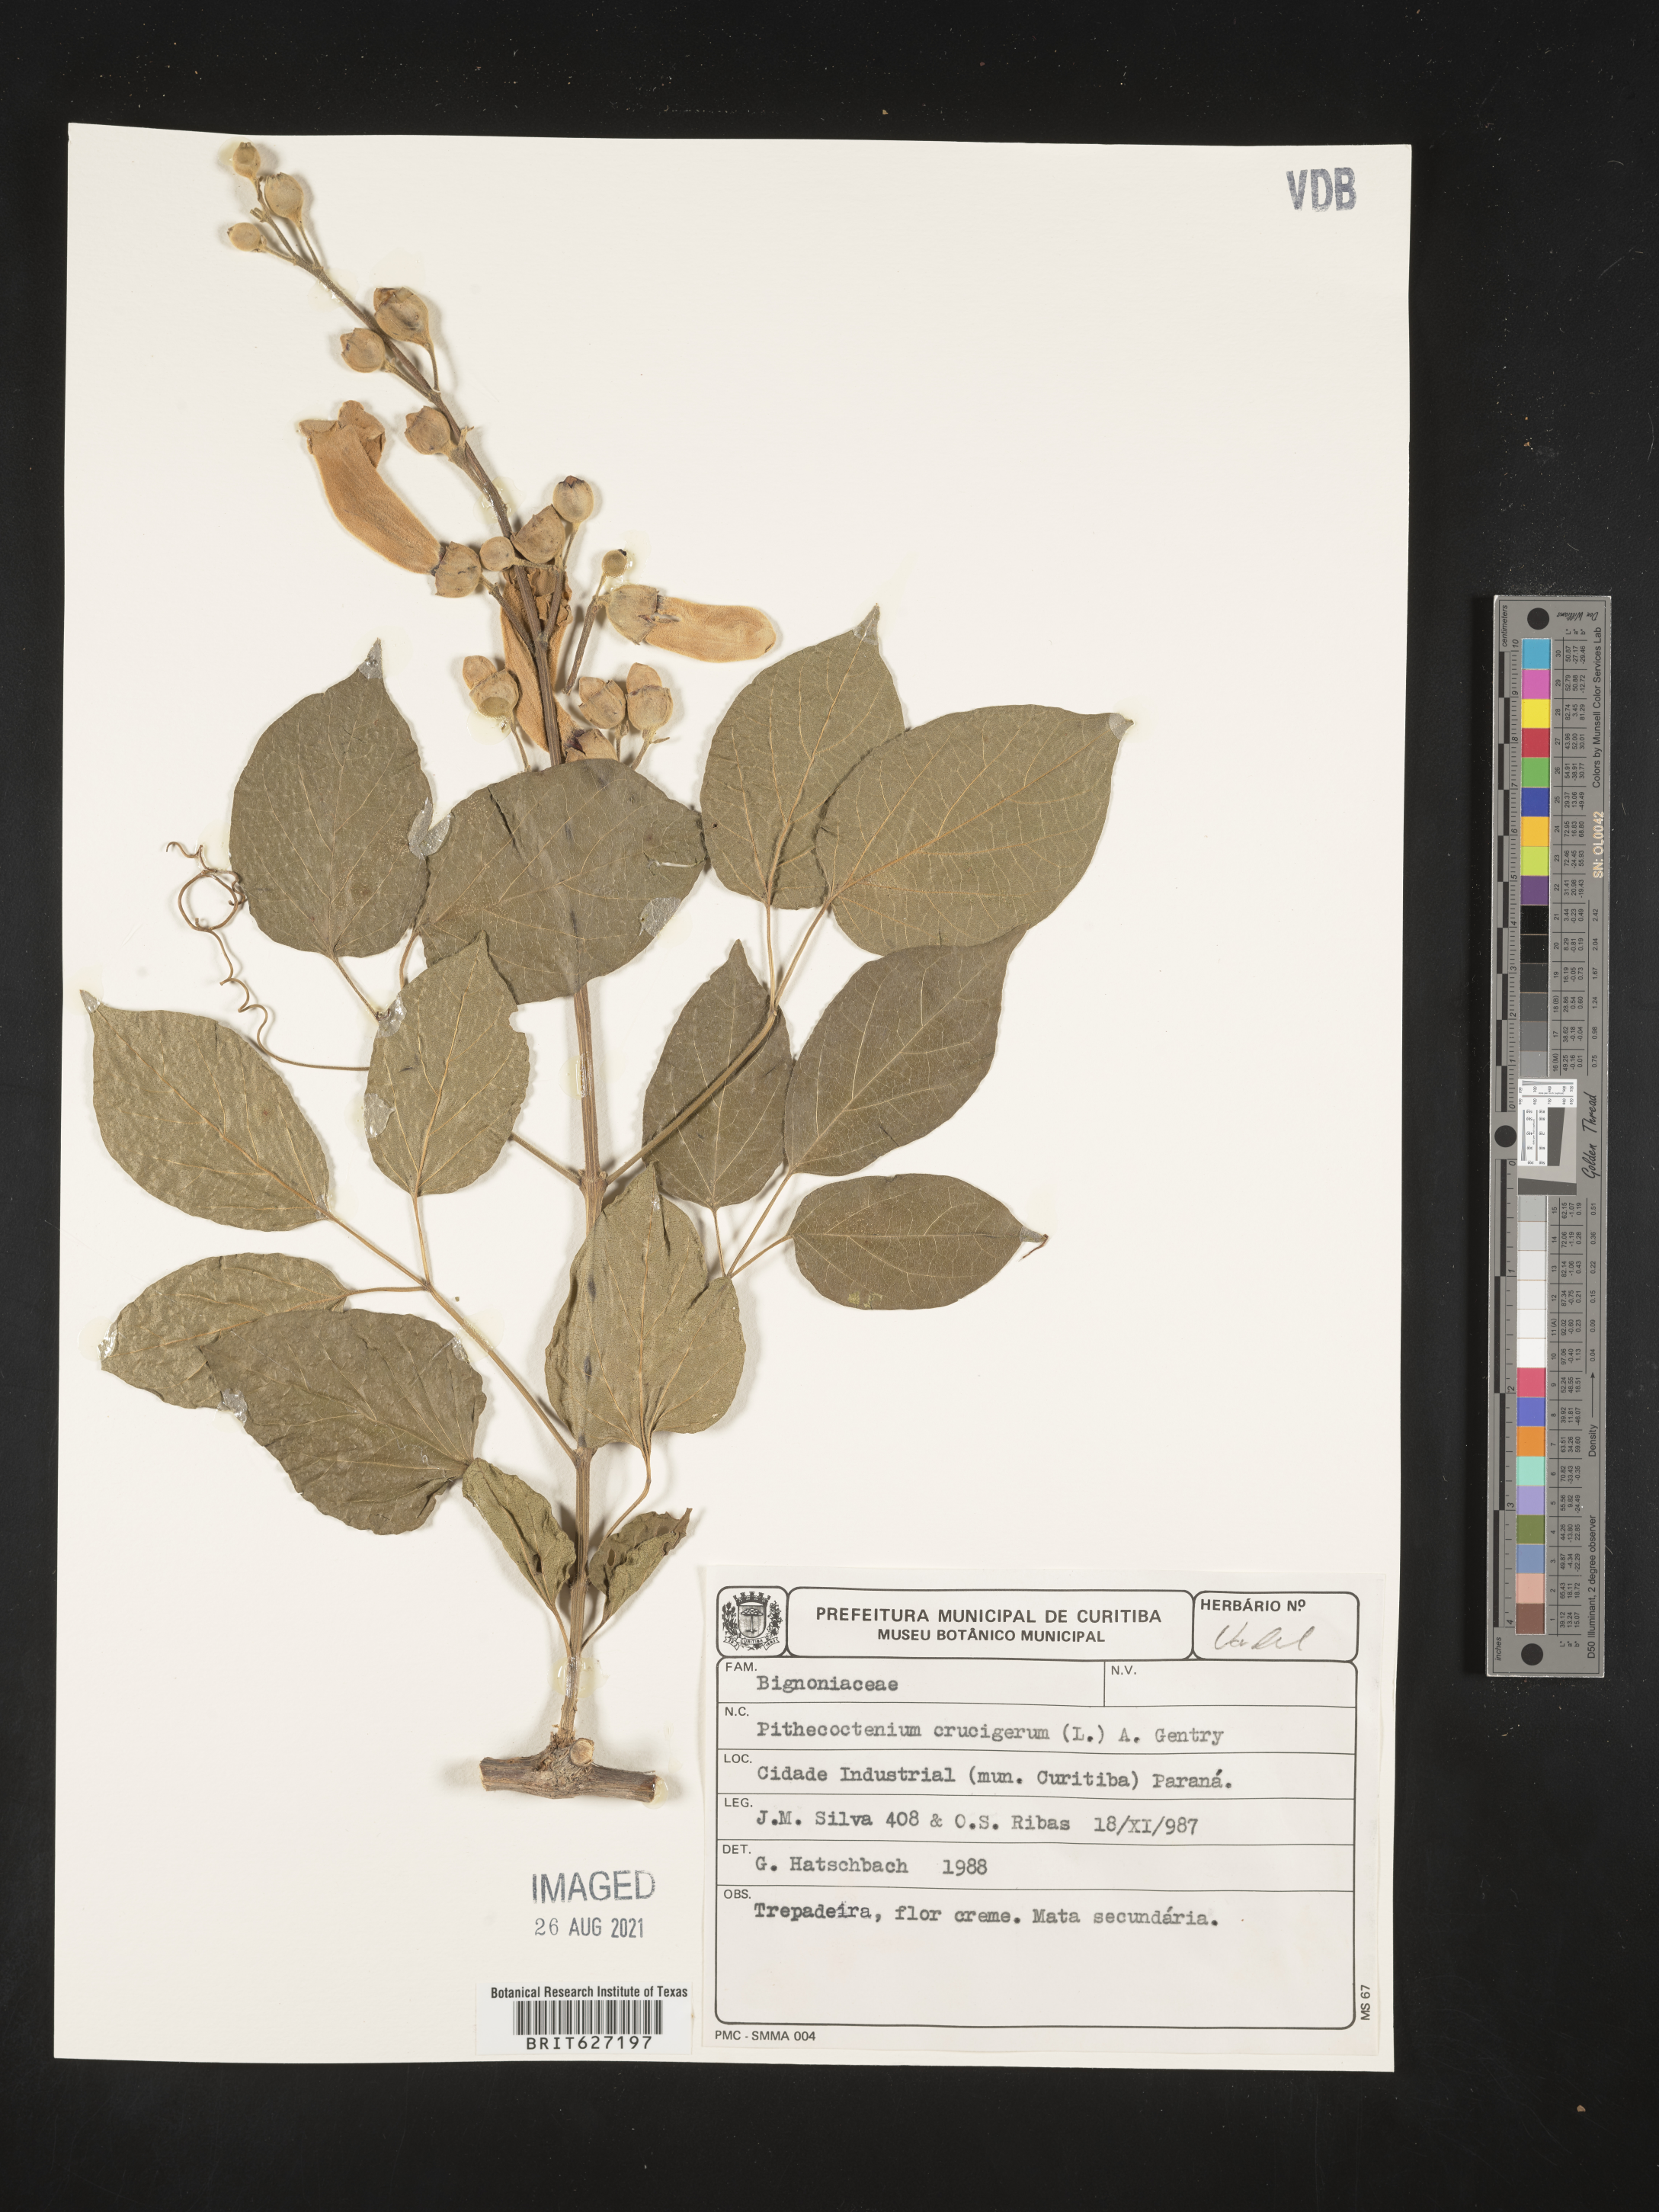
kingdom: Plantae
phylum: Tracheophyta
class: Magnoliopsida
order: Lamiales
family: Bignoniaceae
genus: Amphilophium
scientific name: Amphilophium crucigerum
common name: Monkey comb
